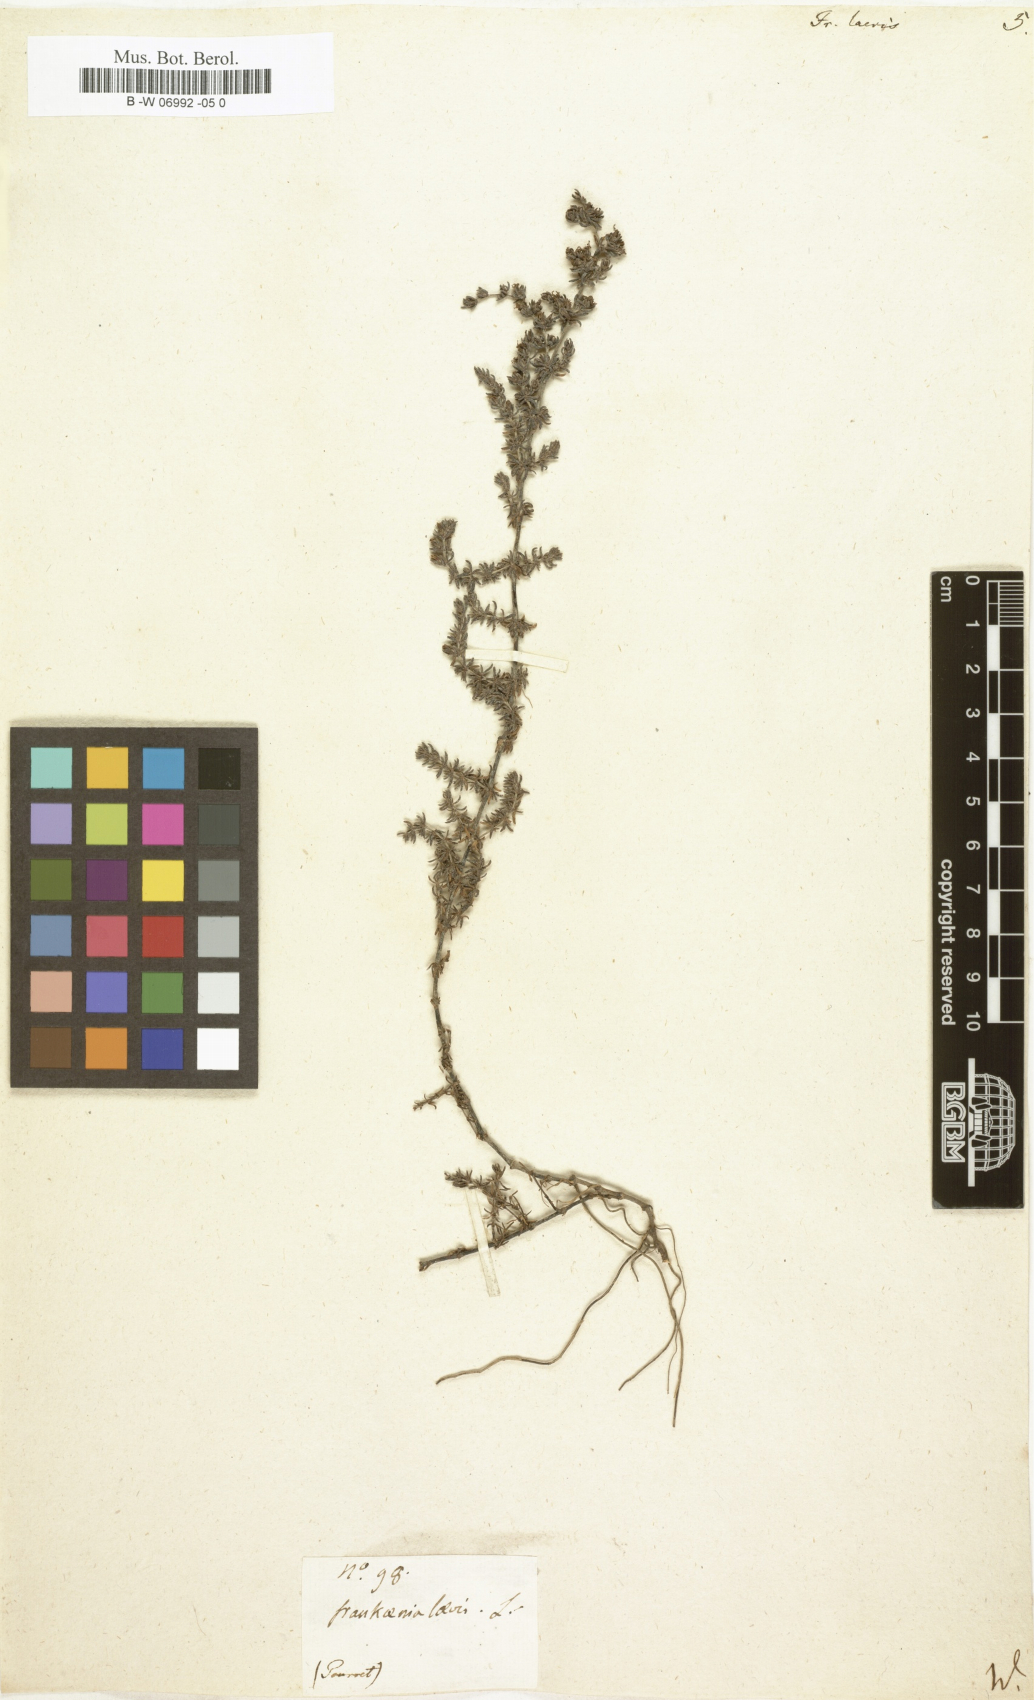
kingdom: Plantae
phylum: Tracheophyta
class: Magnoliopsida
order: Caryophyllales
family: Frankeniaceae
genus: Frankenia
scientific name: Frankenia laevis
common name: Sea-heath
